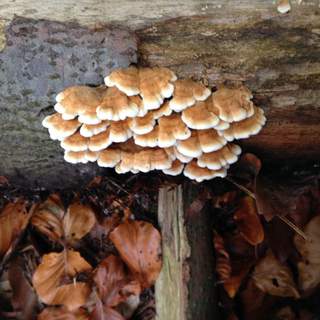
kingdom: Fungi
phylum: Basidiomycota
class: Agaricomycetes
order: Amylocorticiales
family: Amylocorticiaceae
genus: Plicaturopsis
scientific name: Plicaturopsis crispa
